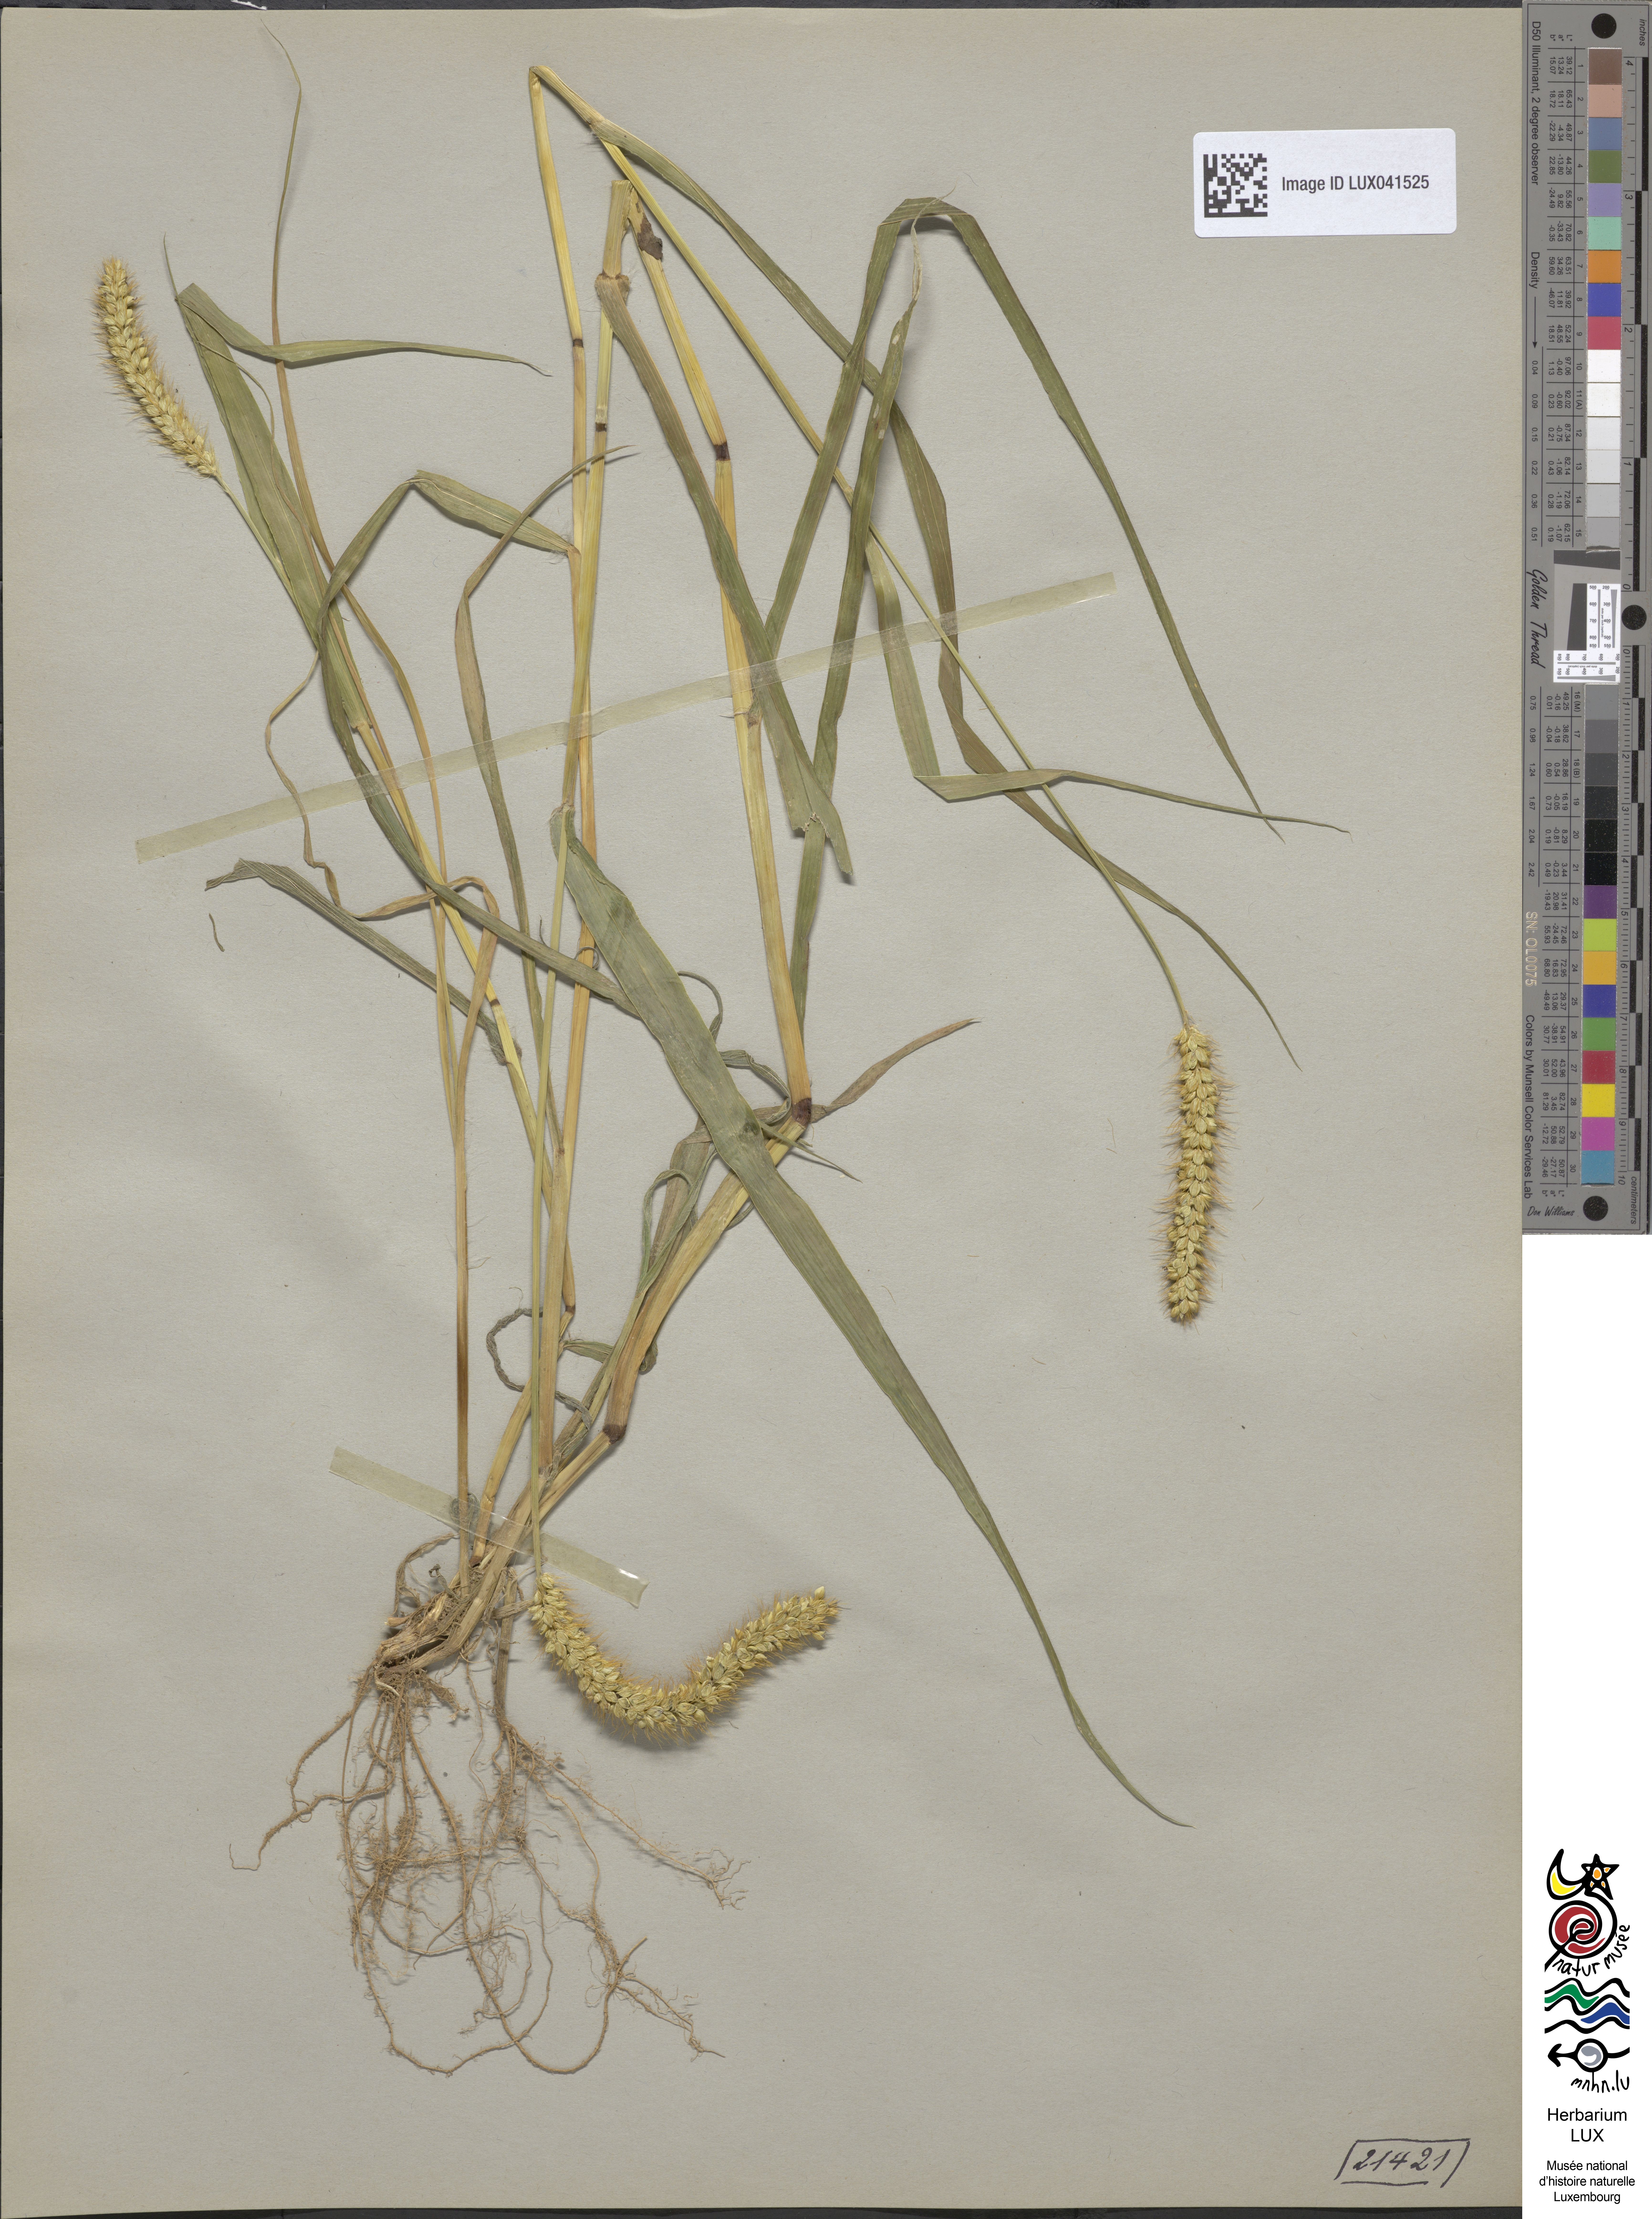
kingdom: Plantae
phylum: Tracheophyta
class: Liliopsida
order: Poales
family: Poaceae
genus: Cenchrus
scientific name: Cenchrus americanus
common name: Pearl millet
